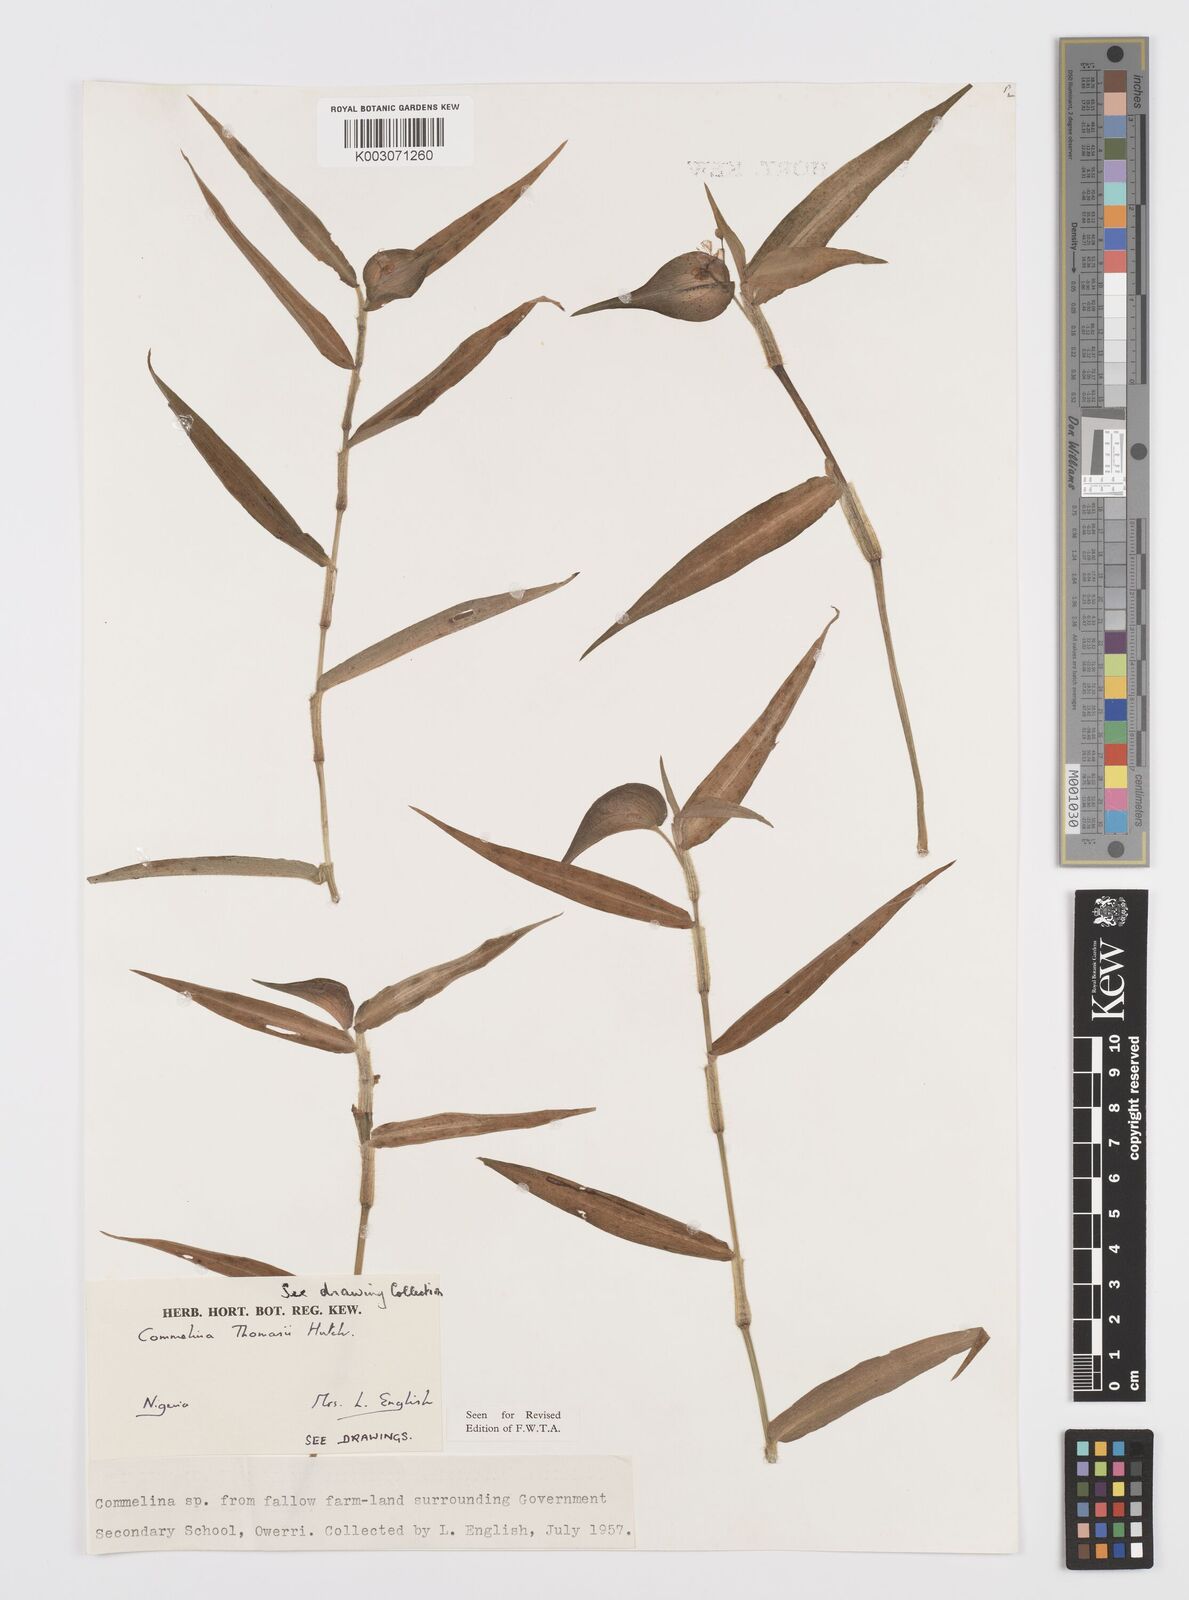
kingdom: Plantae
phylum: Tracheophyta
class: Liliopsida
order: Commelinales
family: Commelinaceae
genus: Commelina
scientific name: Commelina acutispatha
